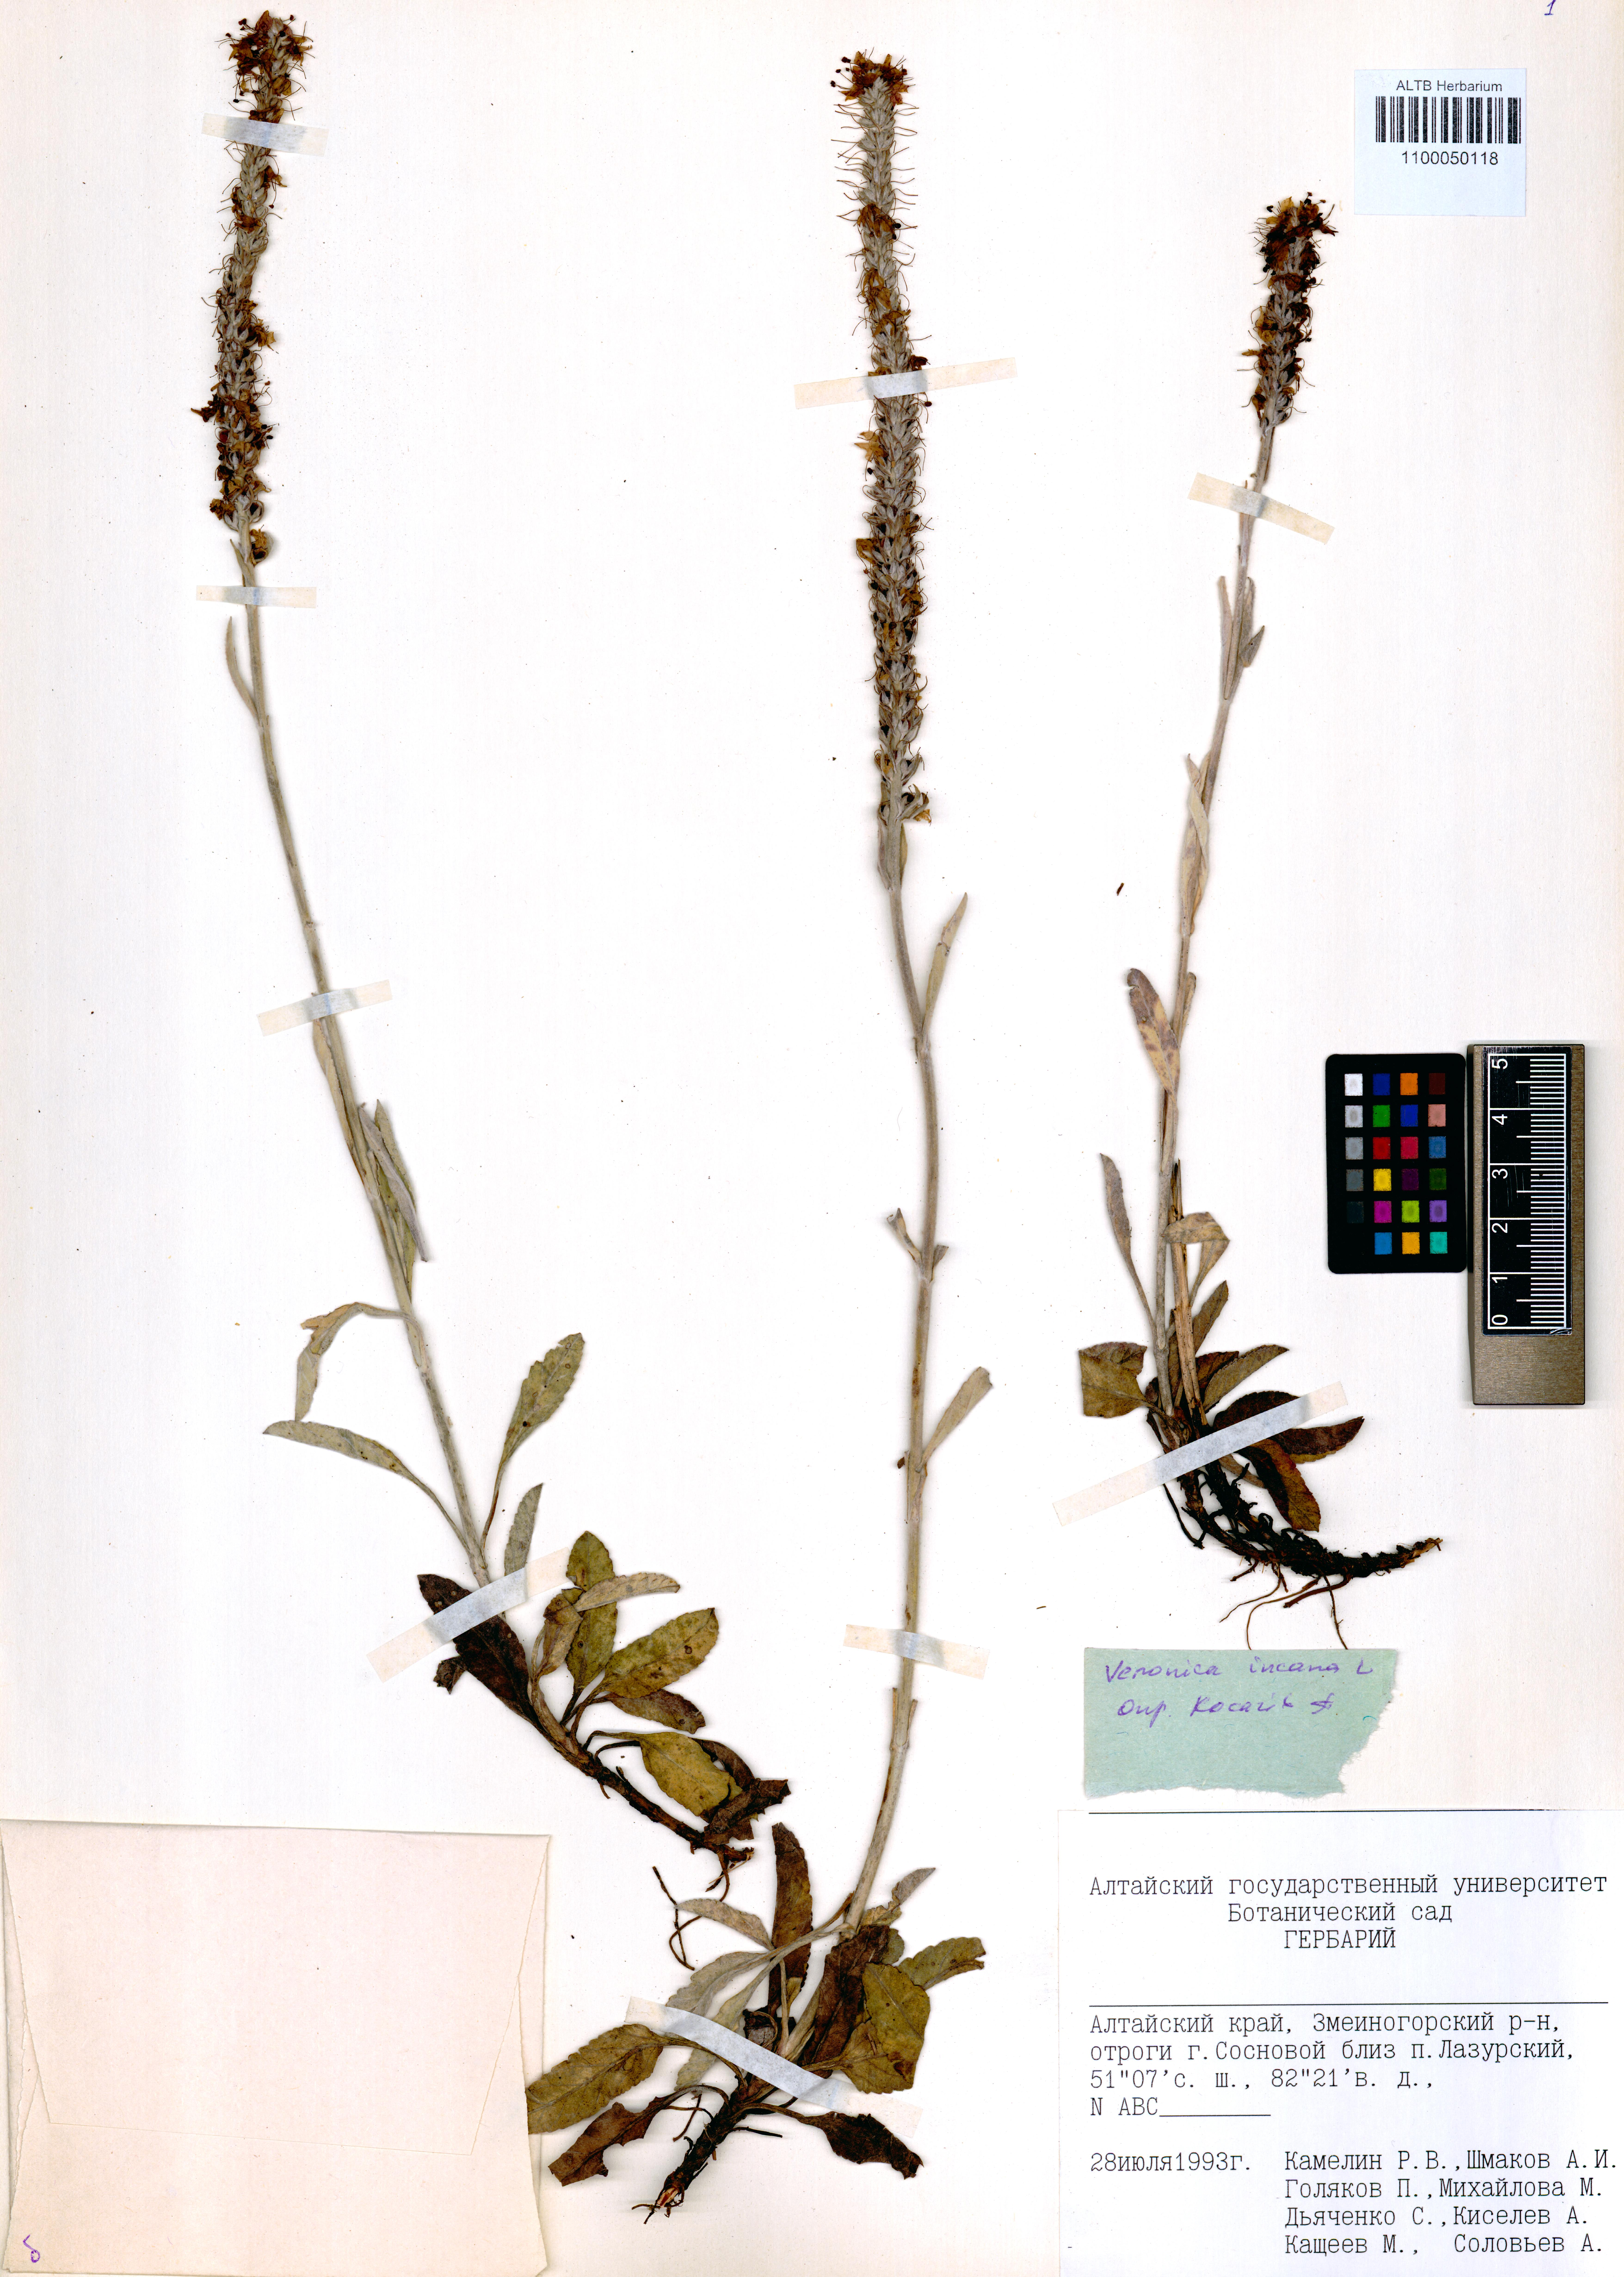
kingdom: Plantae
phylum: Tracheophyta
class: Magnoliopsida
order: Lamiales
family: Plantaginaceae
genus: Veronica
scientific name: Veronica incana
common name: Silver speedwell
